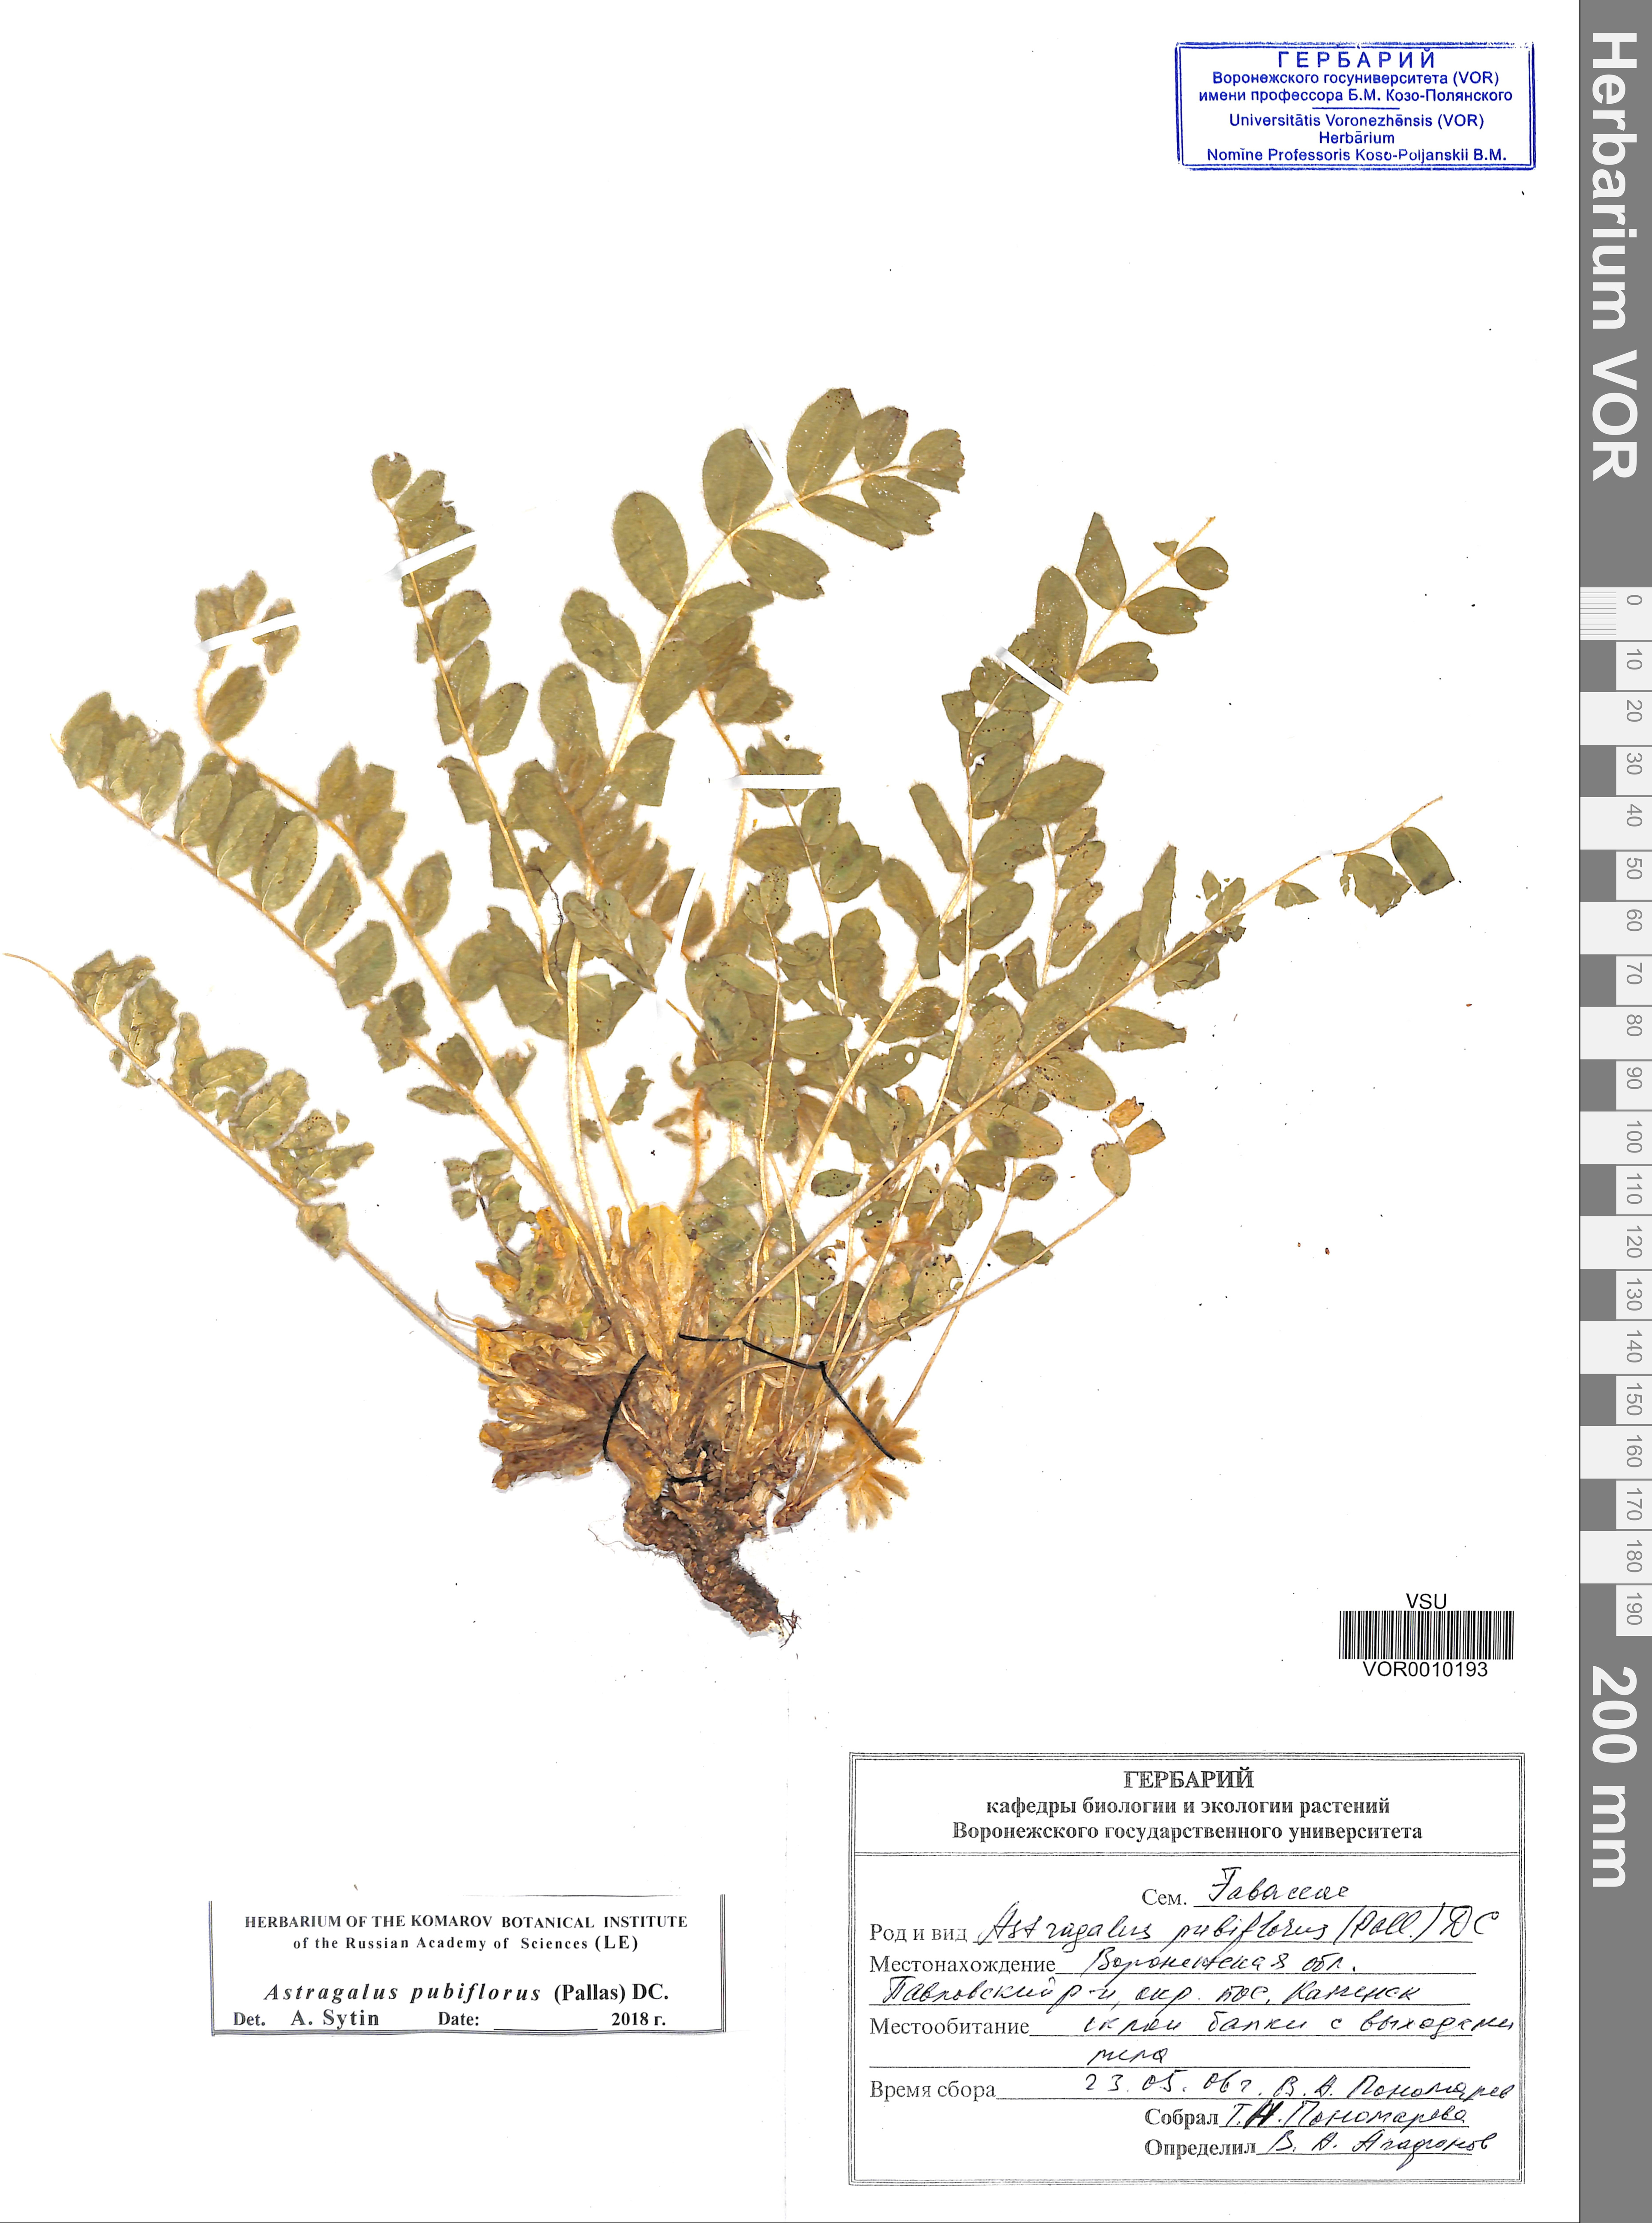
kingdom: Plantae
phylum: Tracheophyta
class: Magnoliopsida
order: Fabales
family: Fabaceae
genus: Astragalus
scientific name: Astragalus exscapus
